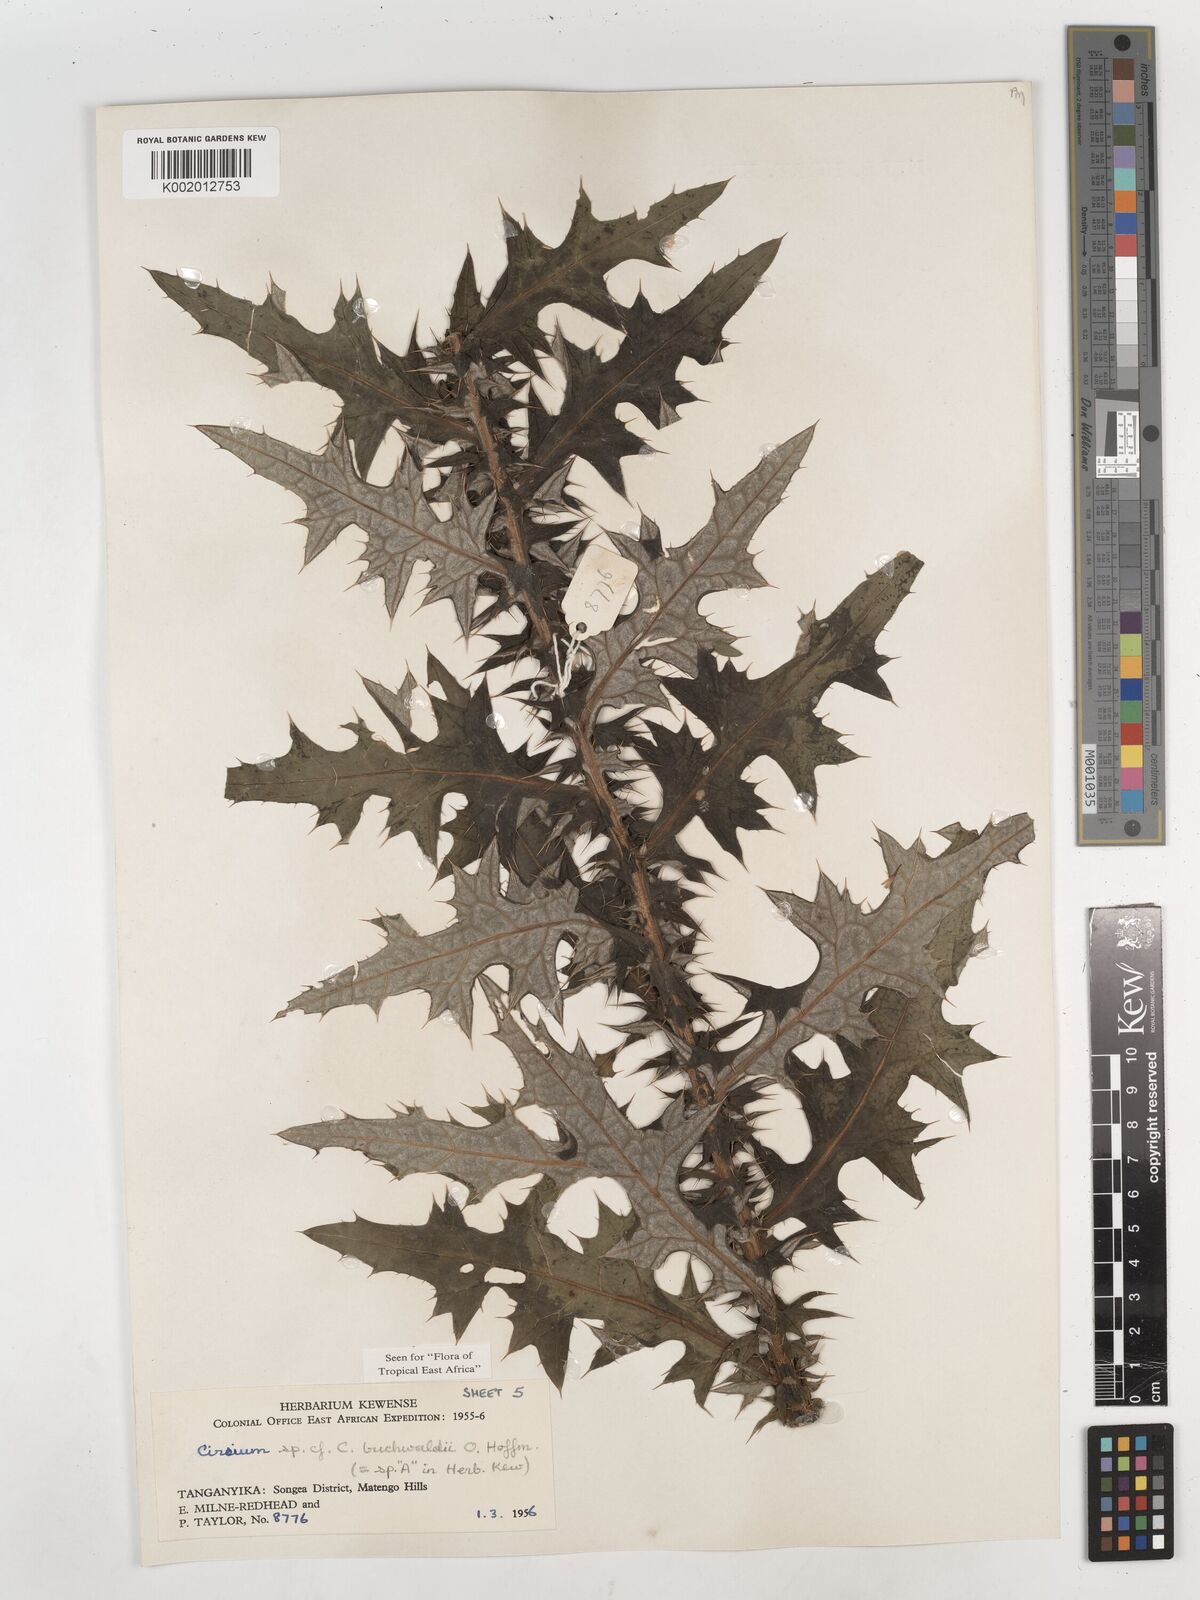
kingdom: Plantae
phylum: Tracheophyta
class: Magnoliopsida
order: Asterales
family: Asteraceae
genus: Cirsium
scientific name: Cirsium buchwaldii
